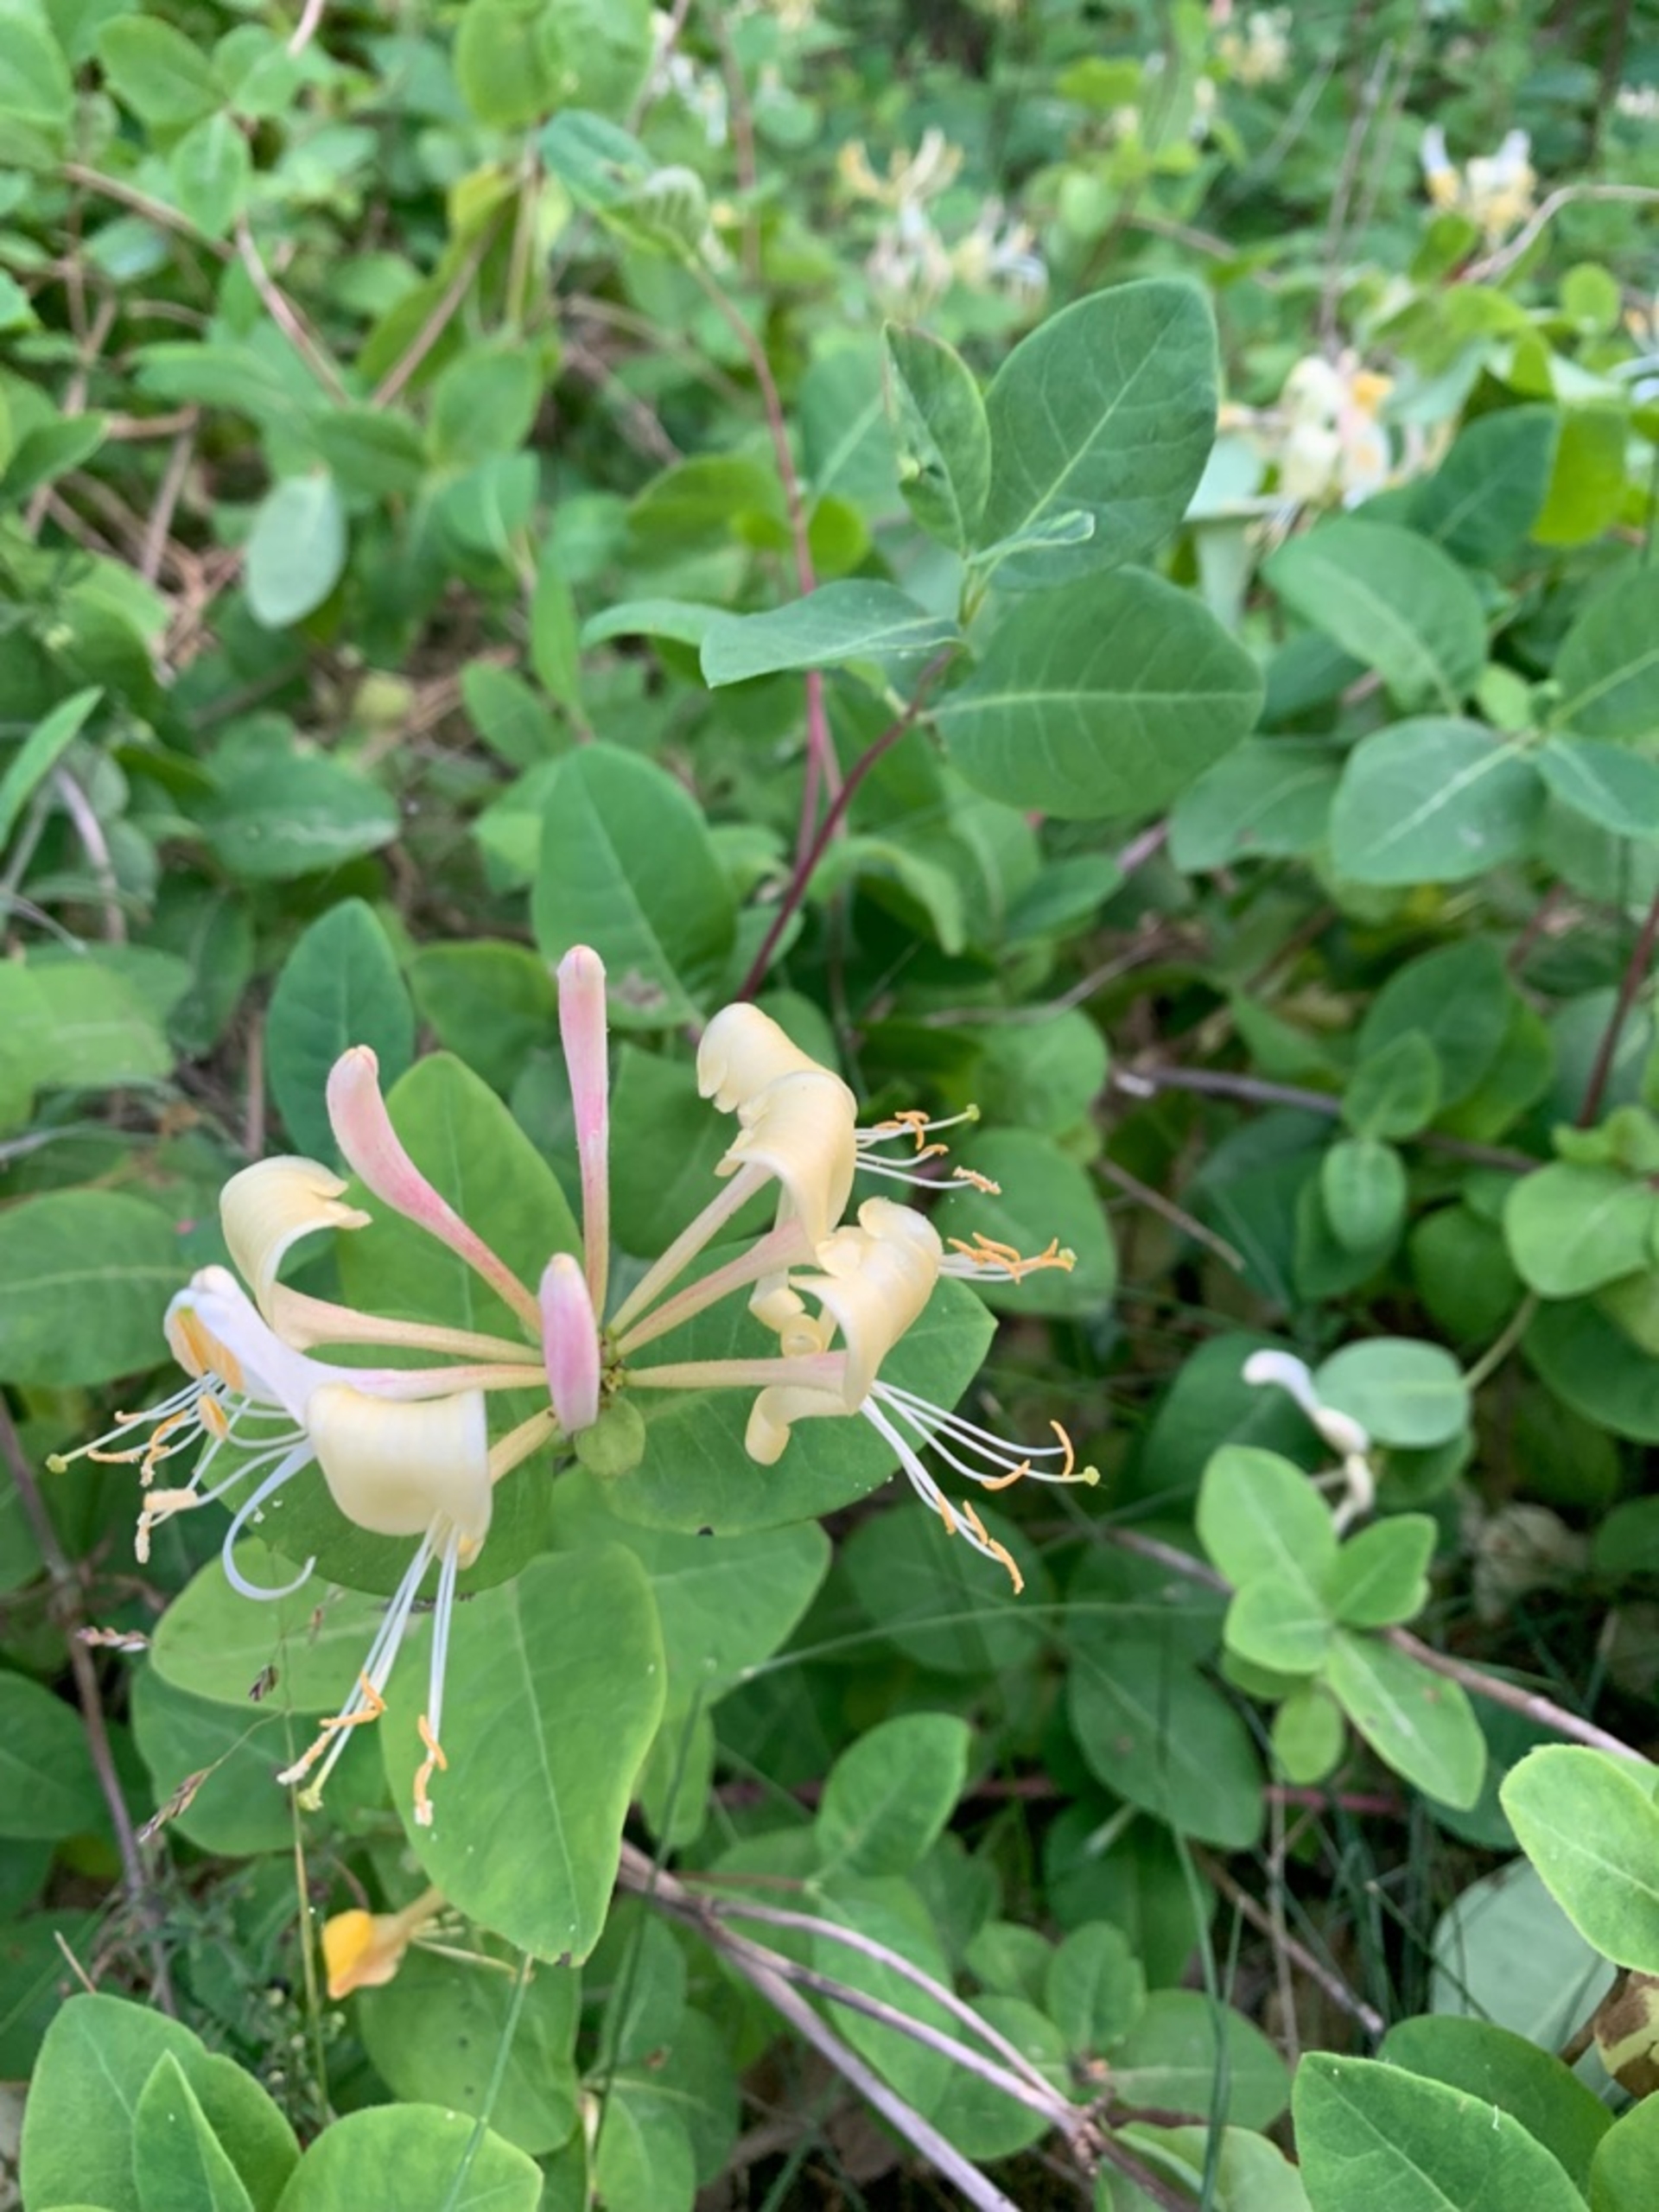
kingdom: Plantae
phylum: Tracheophyta
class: Magnoliopsida
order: Dipsacales
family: Caprifoliaceae
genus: Lonicera
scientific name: Lonicera periclymenum
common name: Almindelig gedeblad
